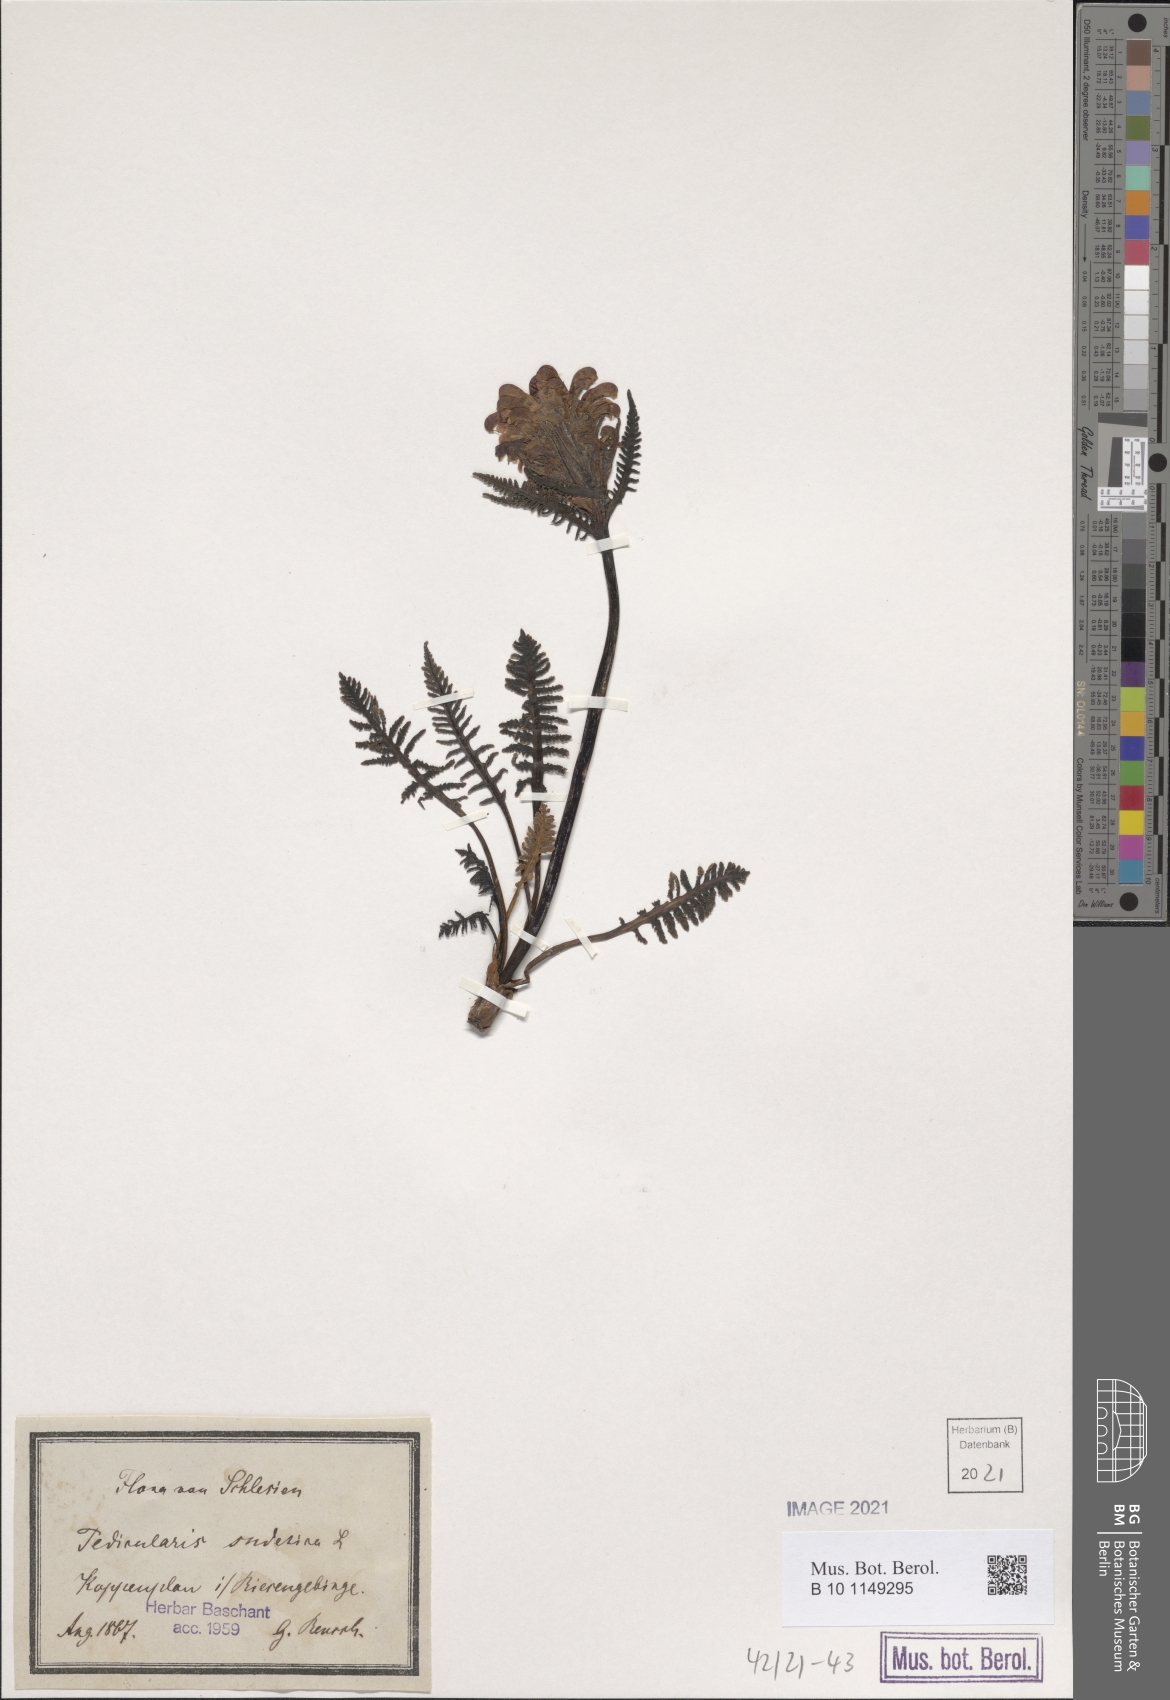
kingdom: Plantae
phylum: Tracheophyta
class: Magnoliopsida
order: Lamiales
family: Orobanchaceae
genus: Pedicularis
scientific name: Pedicularis sudetica
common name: Sudeten lousewort
